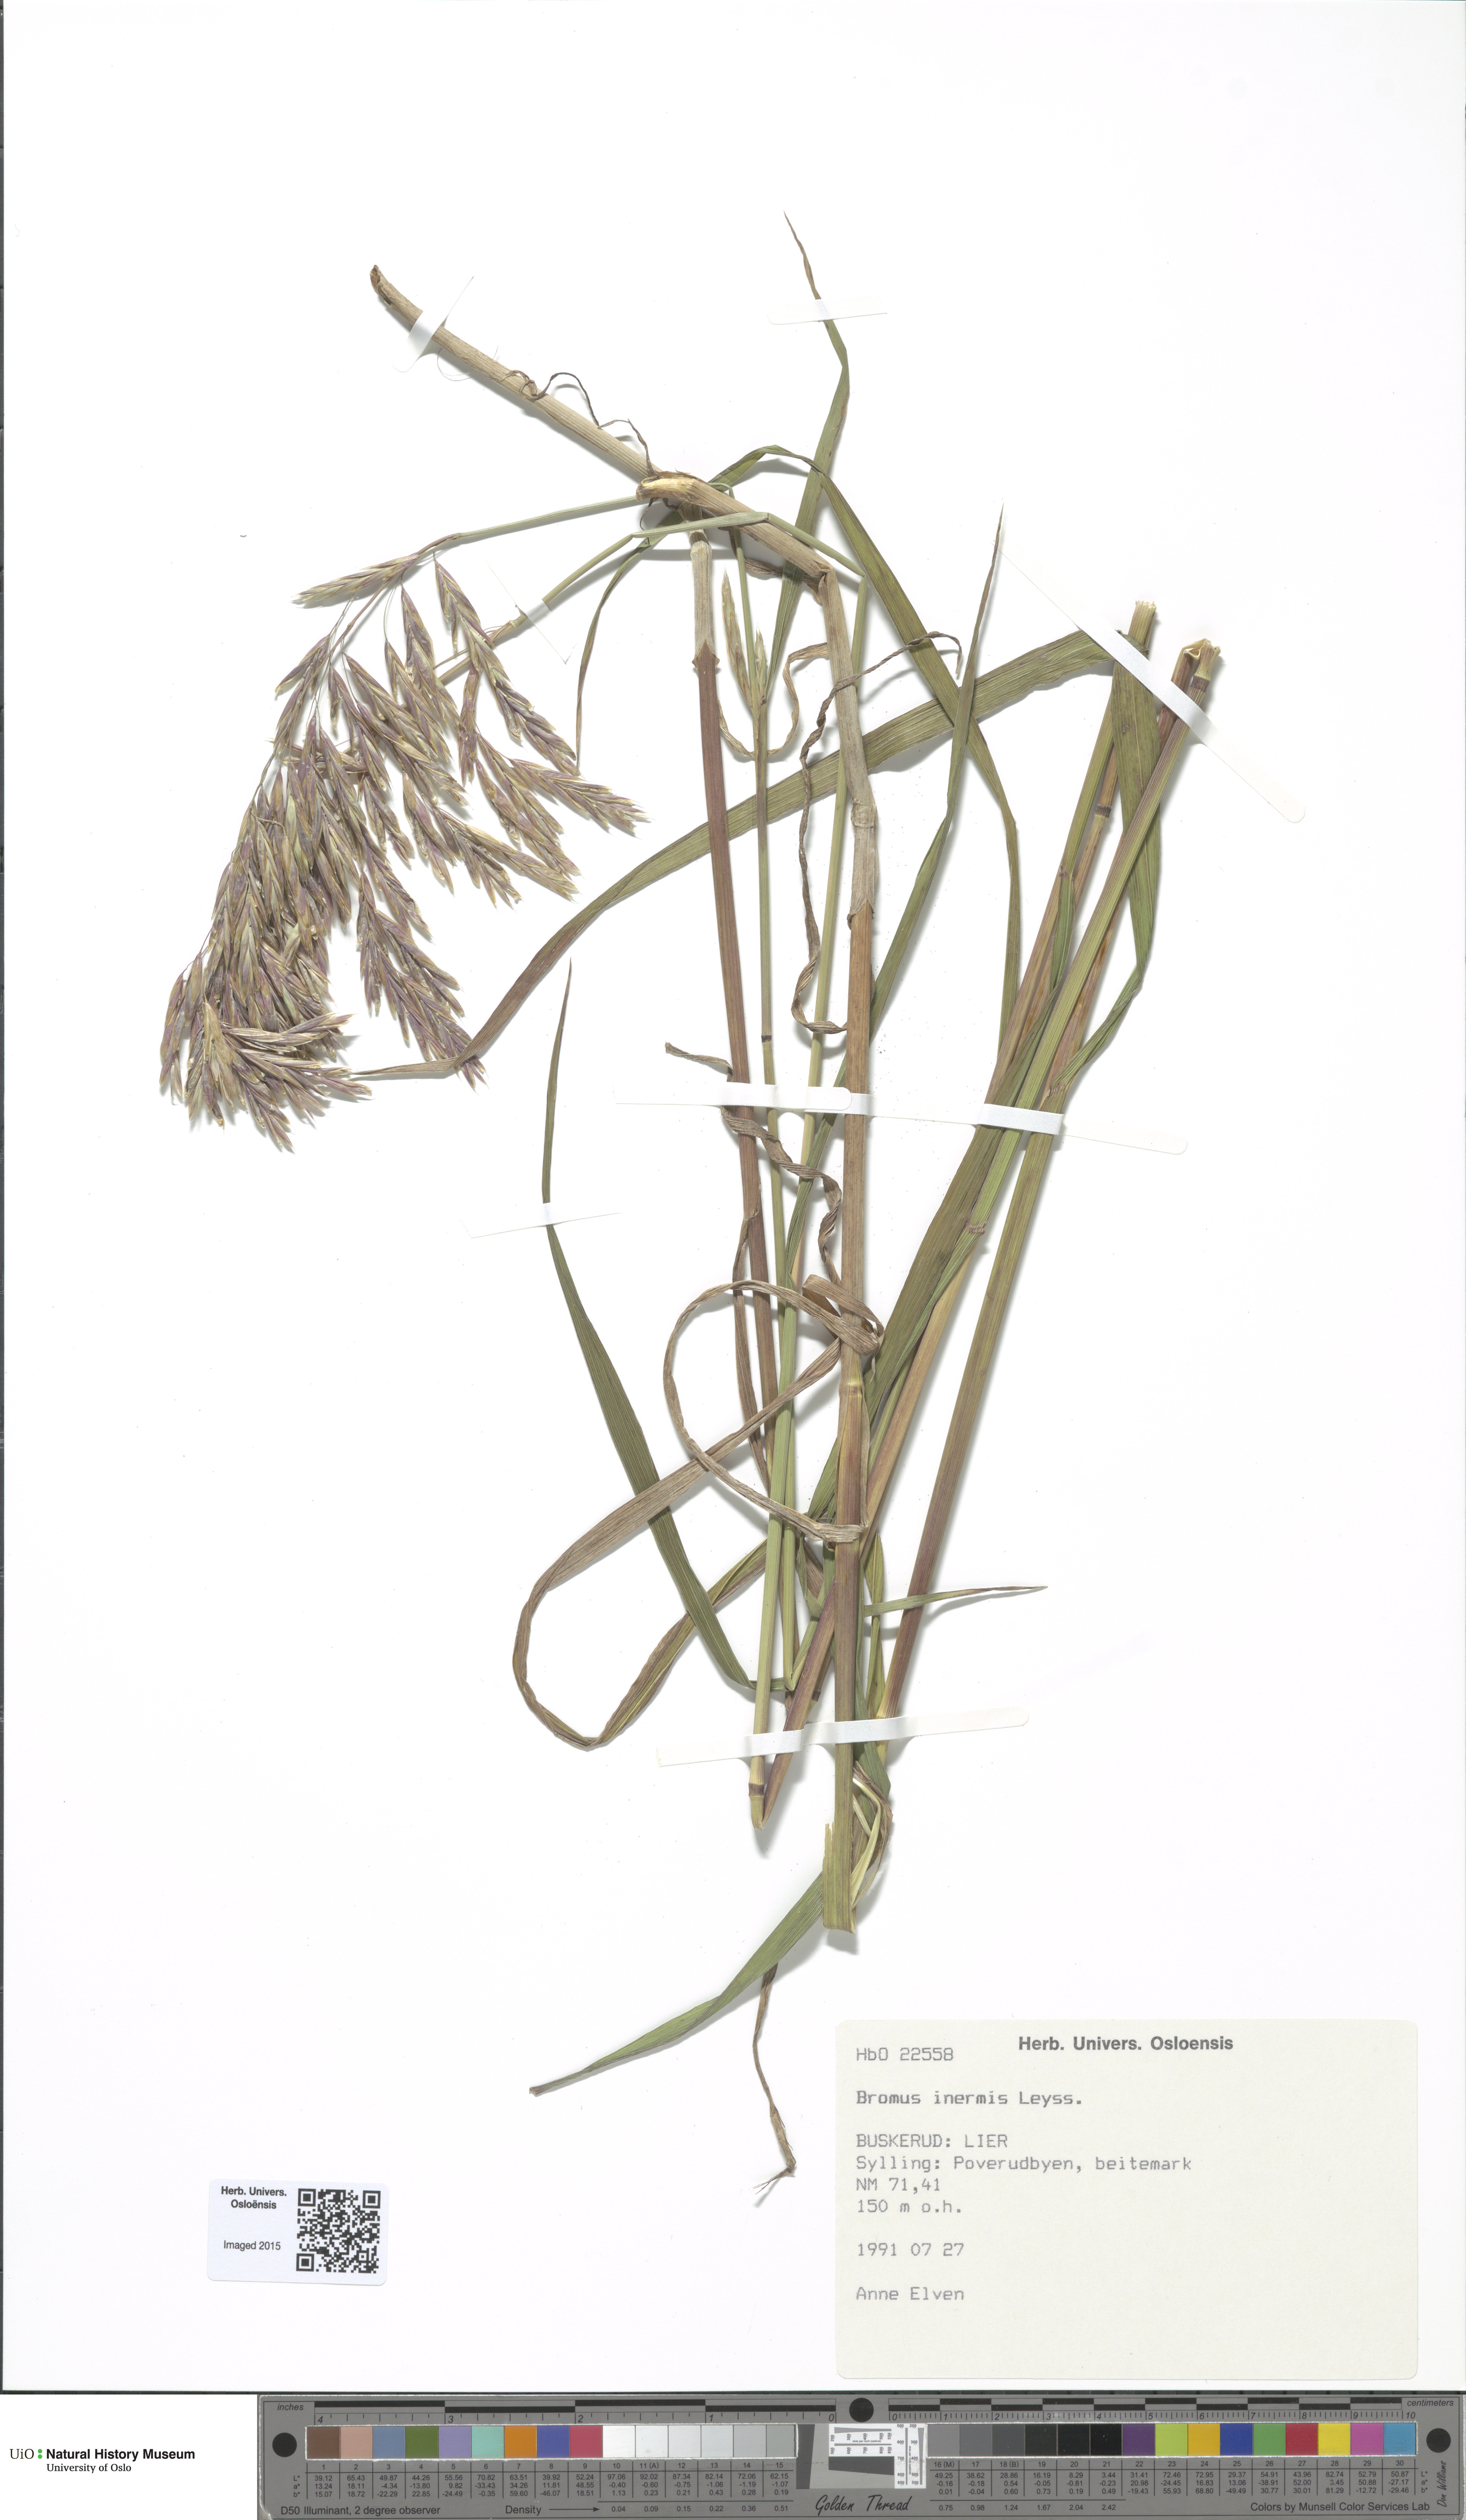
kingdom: Plantae
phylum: Tracheophyta
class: Liliopsida
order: Poales
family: Poaceae
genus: Bromus
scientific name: Bromus inermis
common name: Smooth brome
